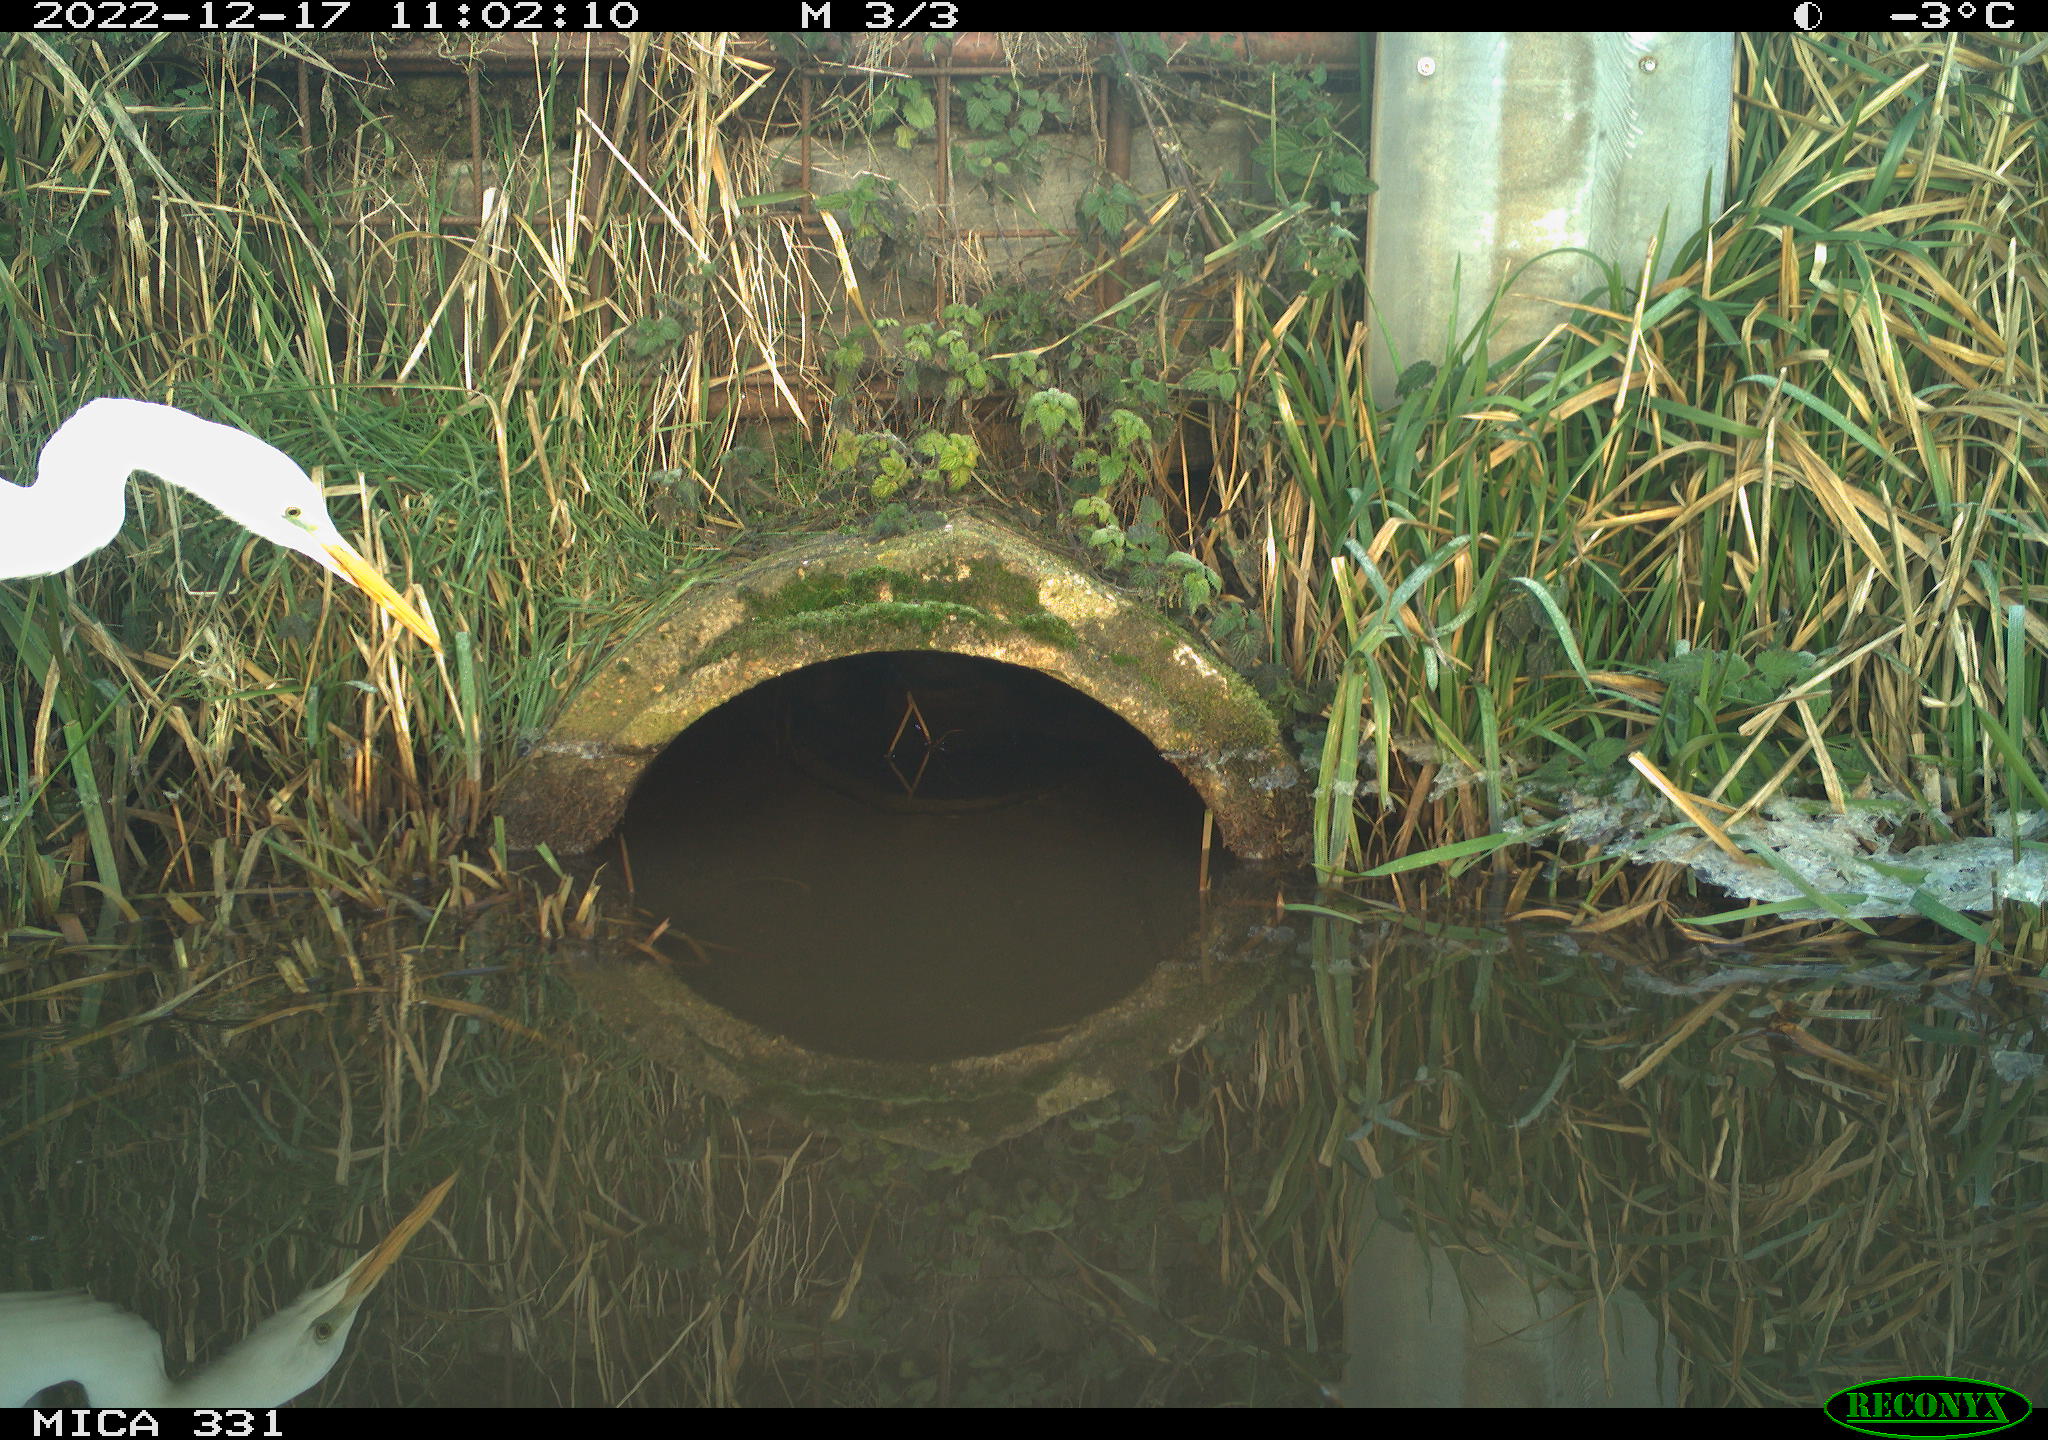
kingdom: Animalia
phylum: Chordata
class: Aves
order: Pelecaniformes
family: Ardeidae
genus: Ardea
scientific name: Ardea alba
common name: Great egret
